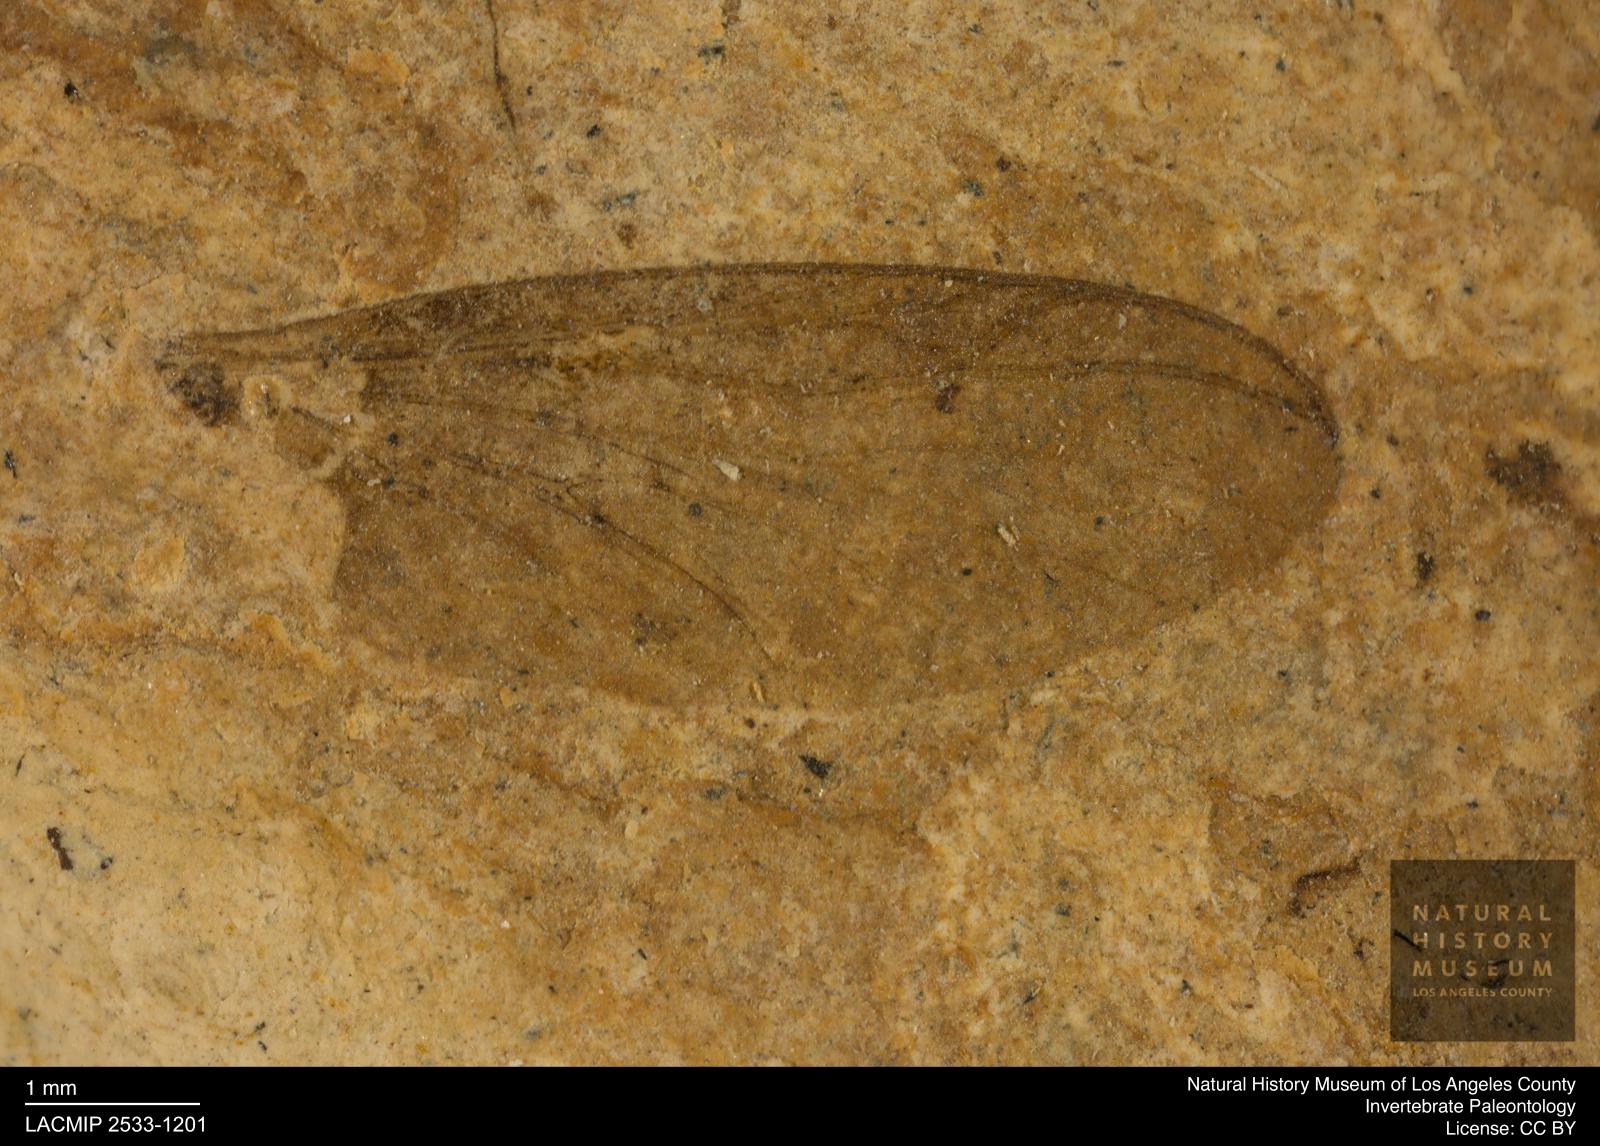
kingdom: Animalia
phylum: Arthropoda
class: Insecta
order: Diptera
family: Bibionidae
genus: Plecia
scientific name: Plecia hypogaea
